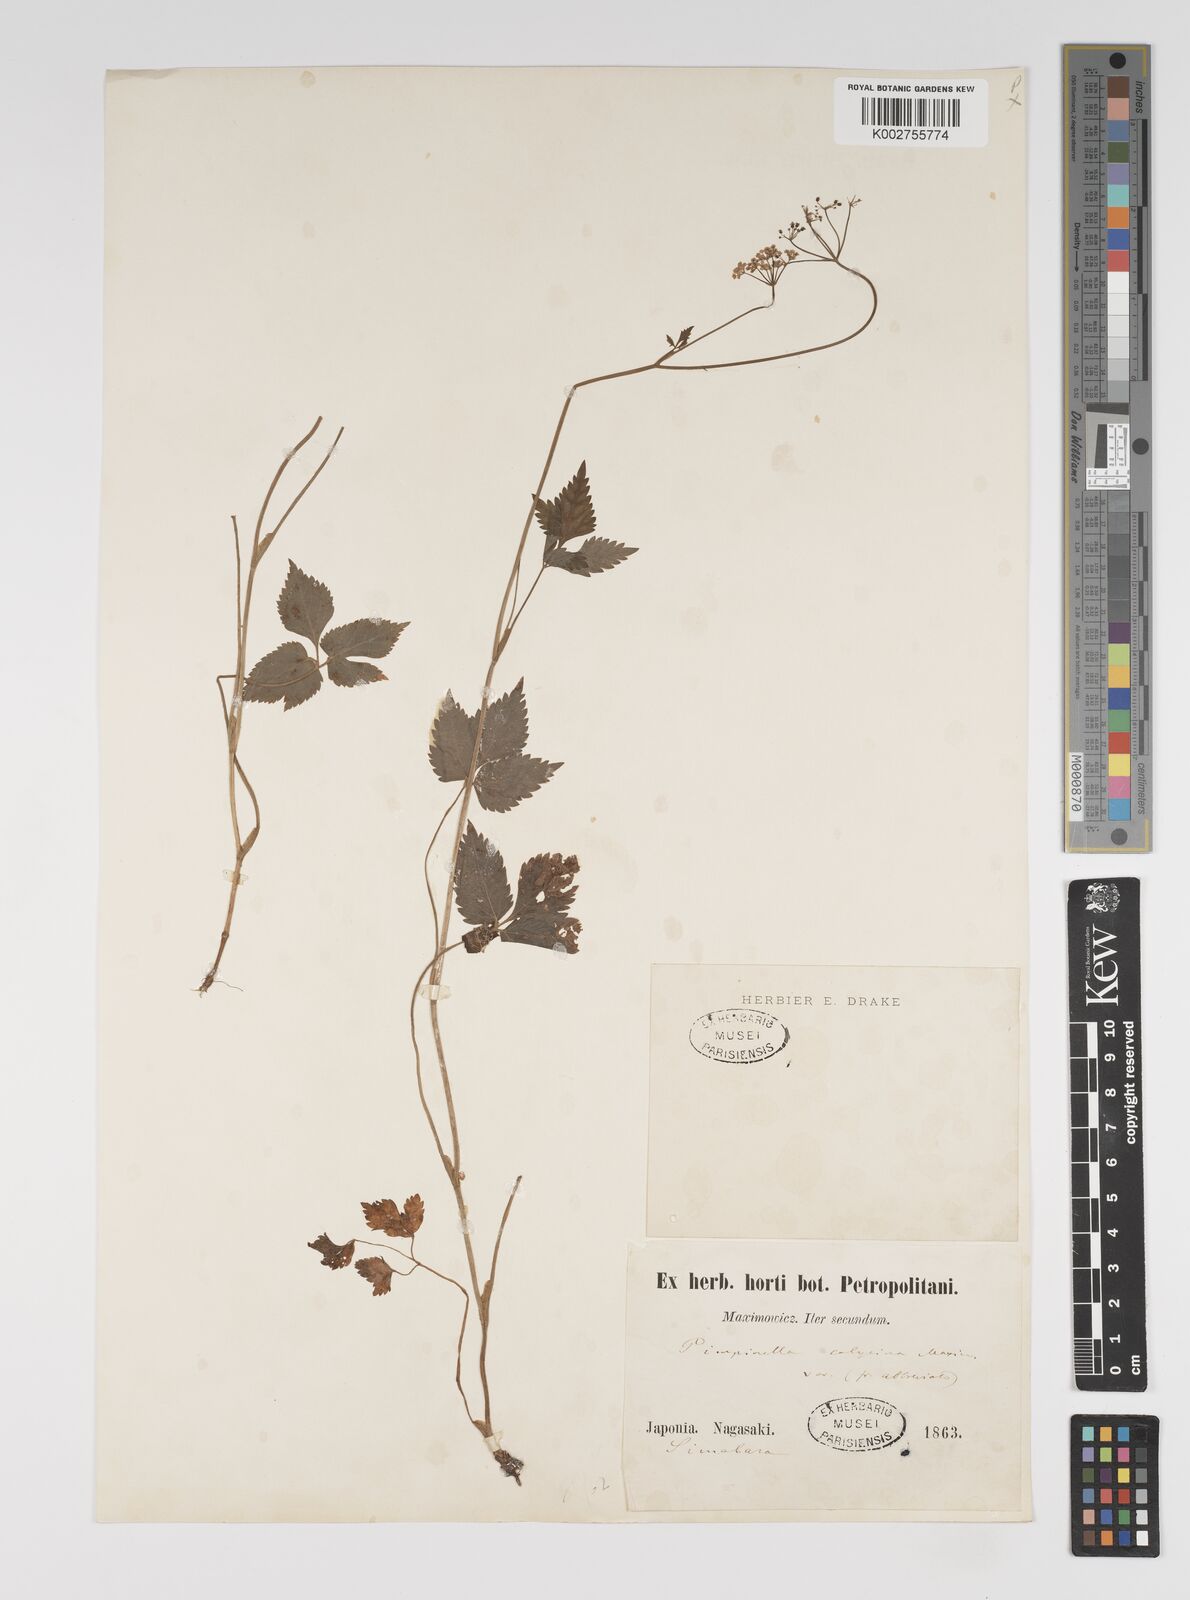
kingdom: Plantae
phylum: Tracheophyta
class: Magnoliopsida
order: Apiales
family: Apiaceae
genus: Spuriopimpinella
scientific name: Spuriopimpinella calycina
